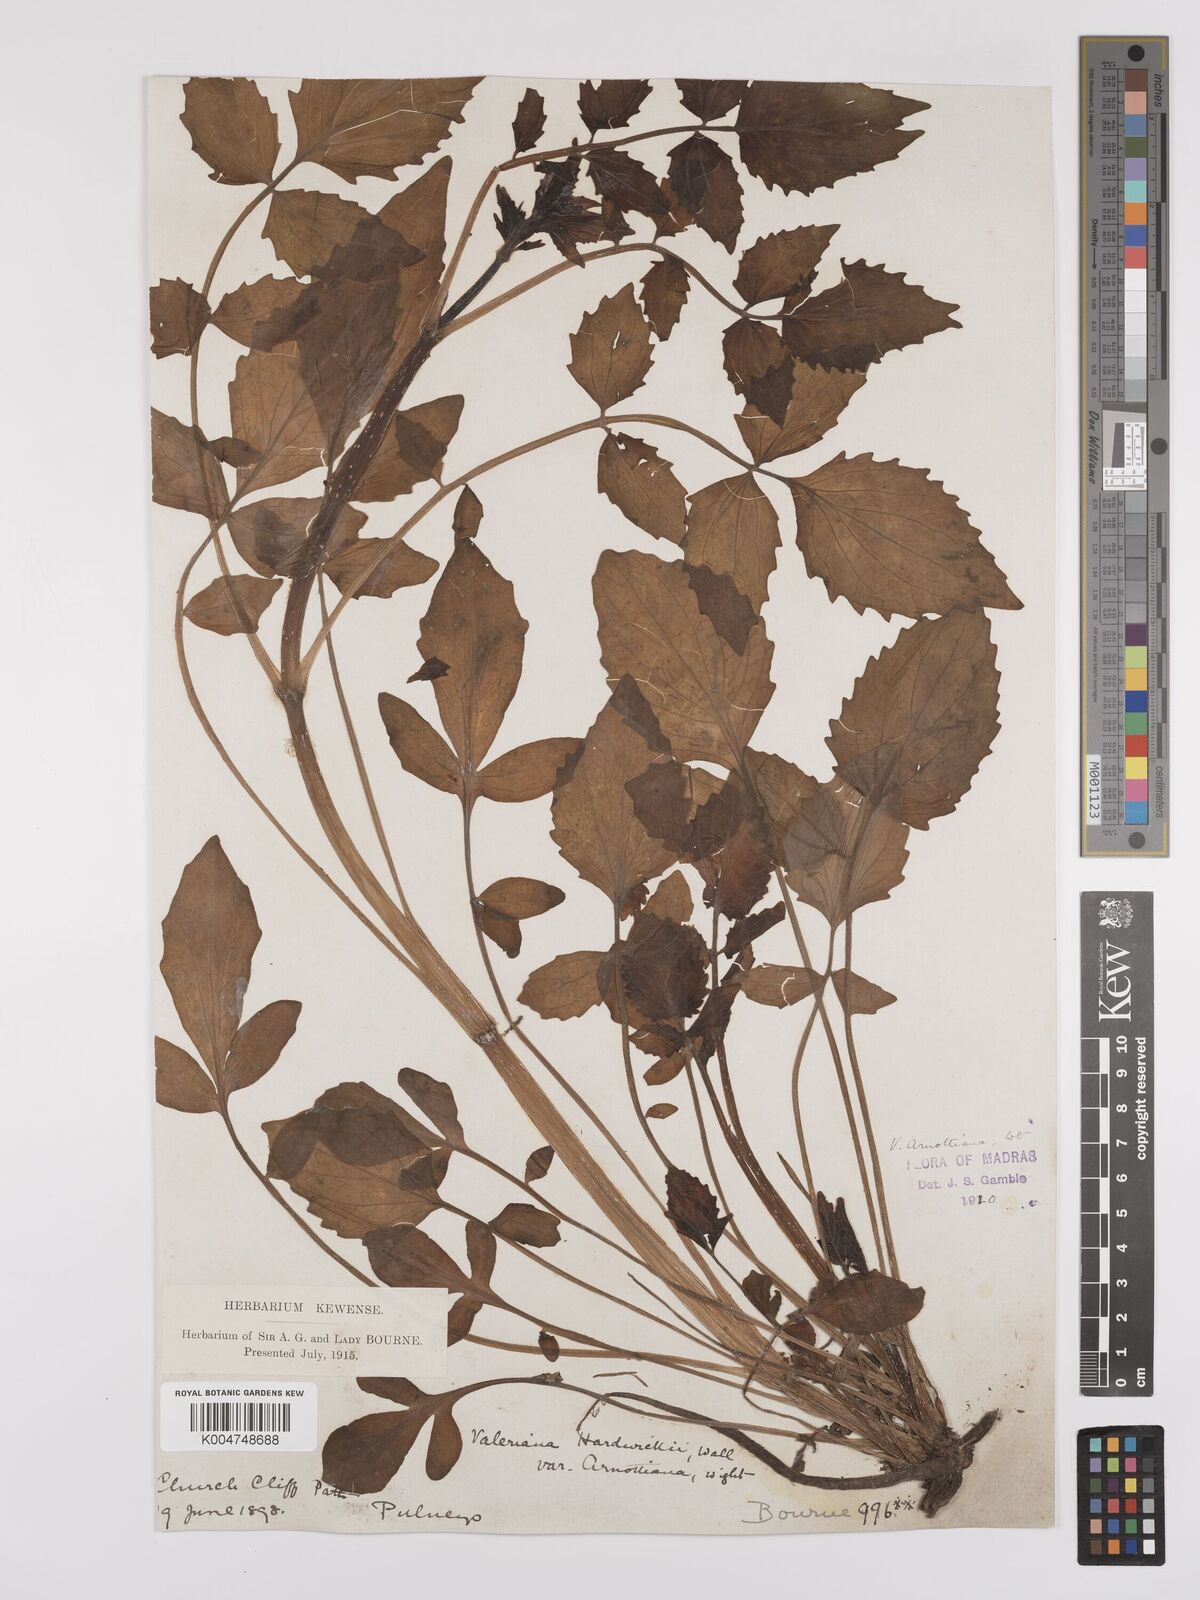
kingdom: Plantae
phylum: Tracheophyta
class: Magnoliopsida
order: Dipsacales
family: Caprifoliaceae
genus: Valeriana
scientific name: Valeriana
